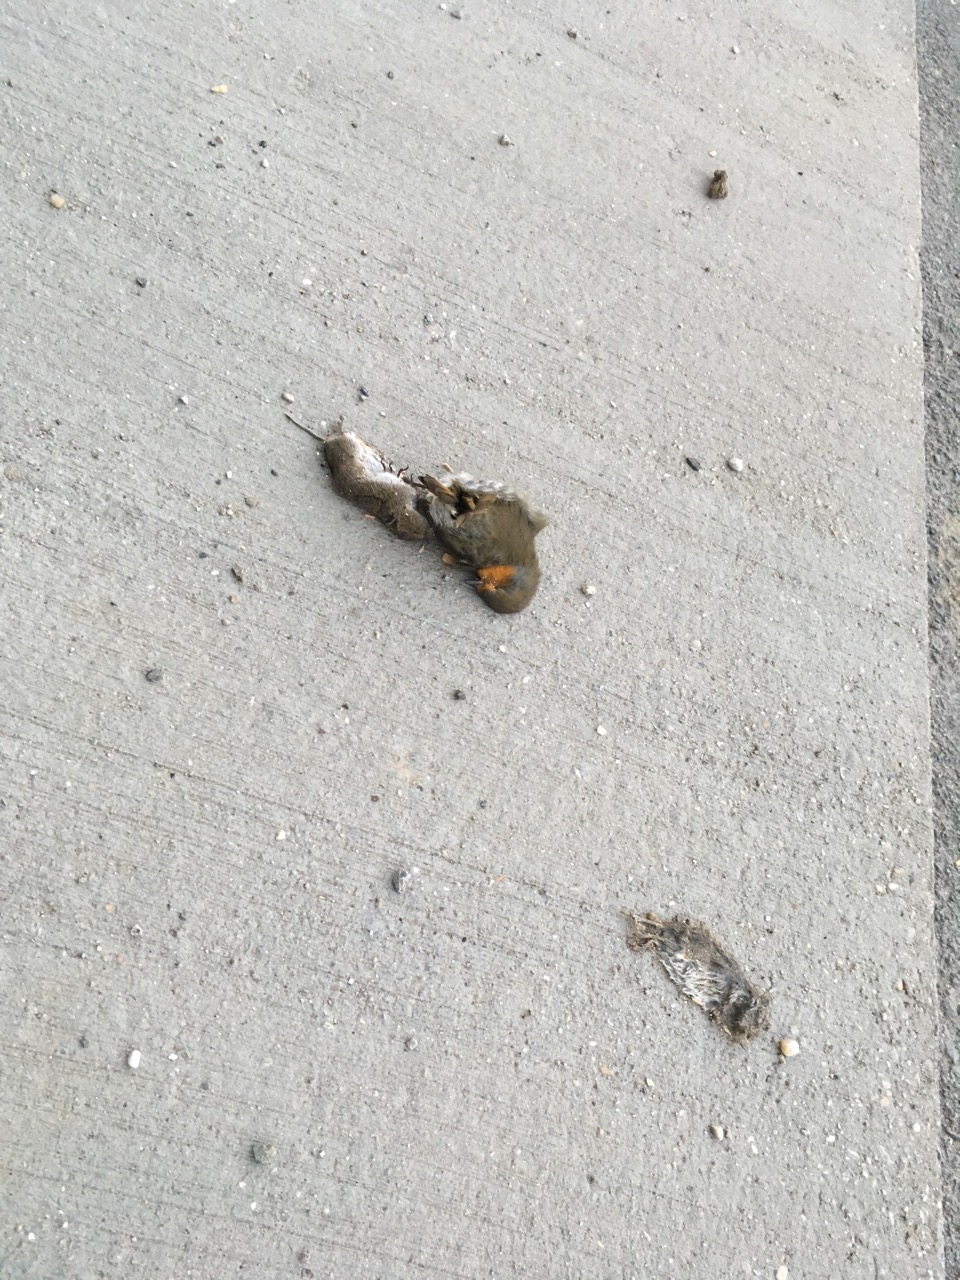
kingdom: Animalia
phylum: Chordata
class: Mammalia
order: Rodentia
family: Cricetidae
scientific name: Cricetidae
